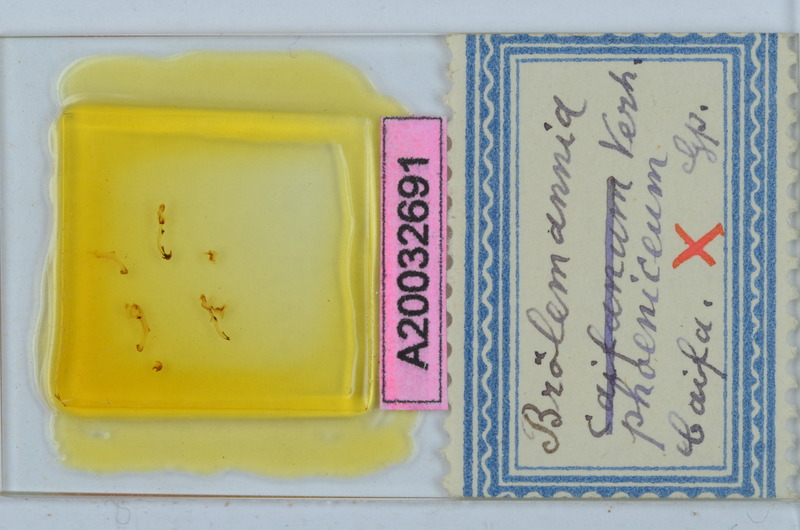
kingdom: Animalia
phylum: Arthropoda
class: Diplopoda
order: Callipodida
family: Schizopetalidae
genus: Broelemannia
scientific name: Broelemannia phoenicea
